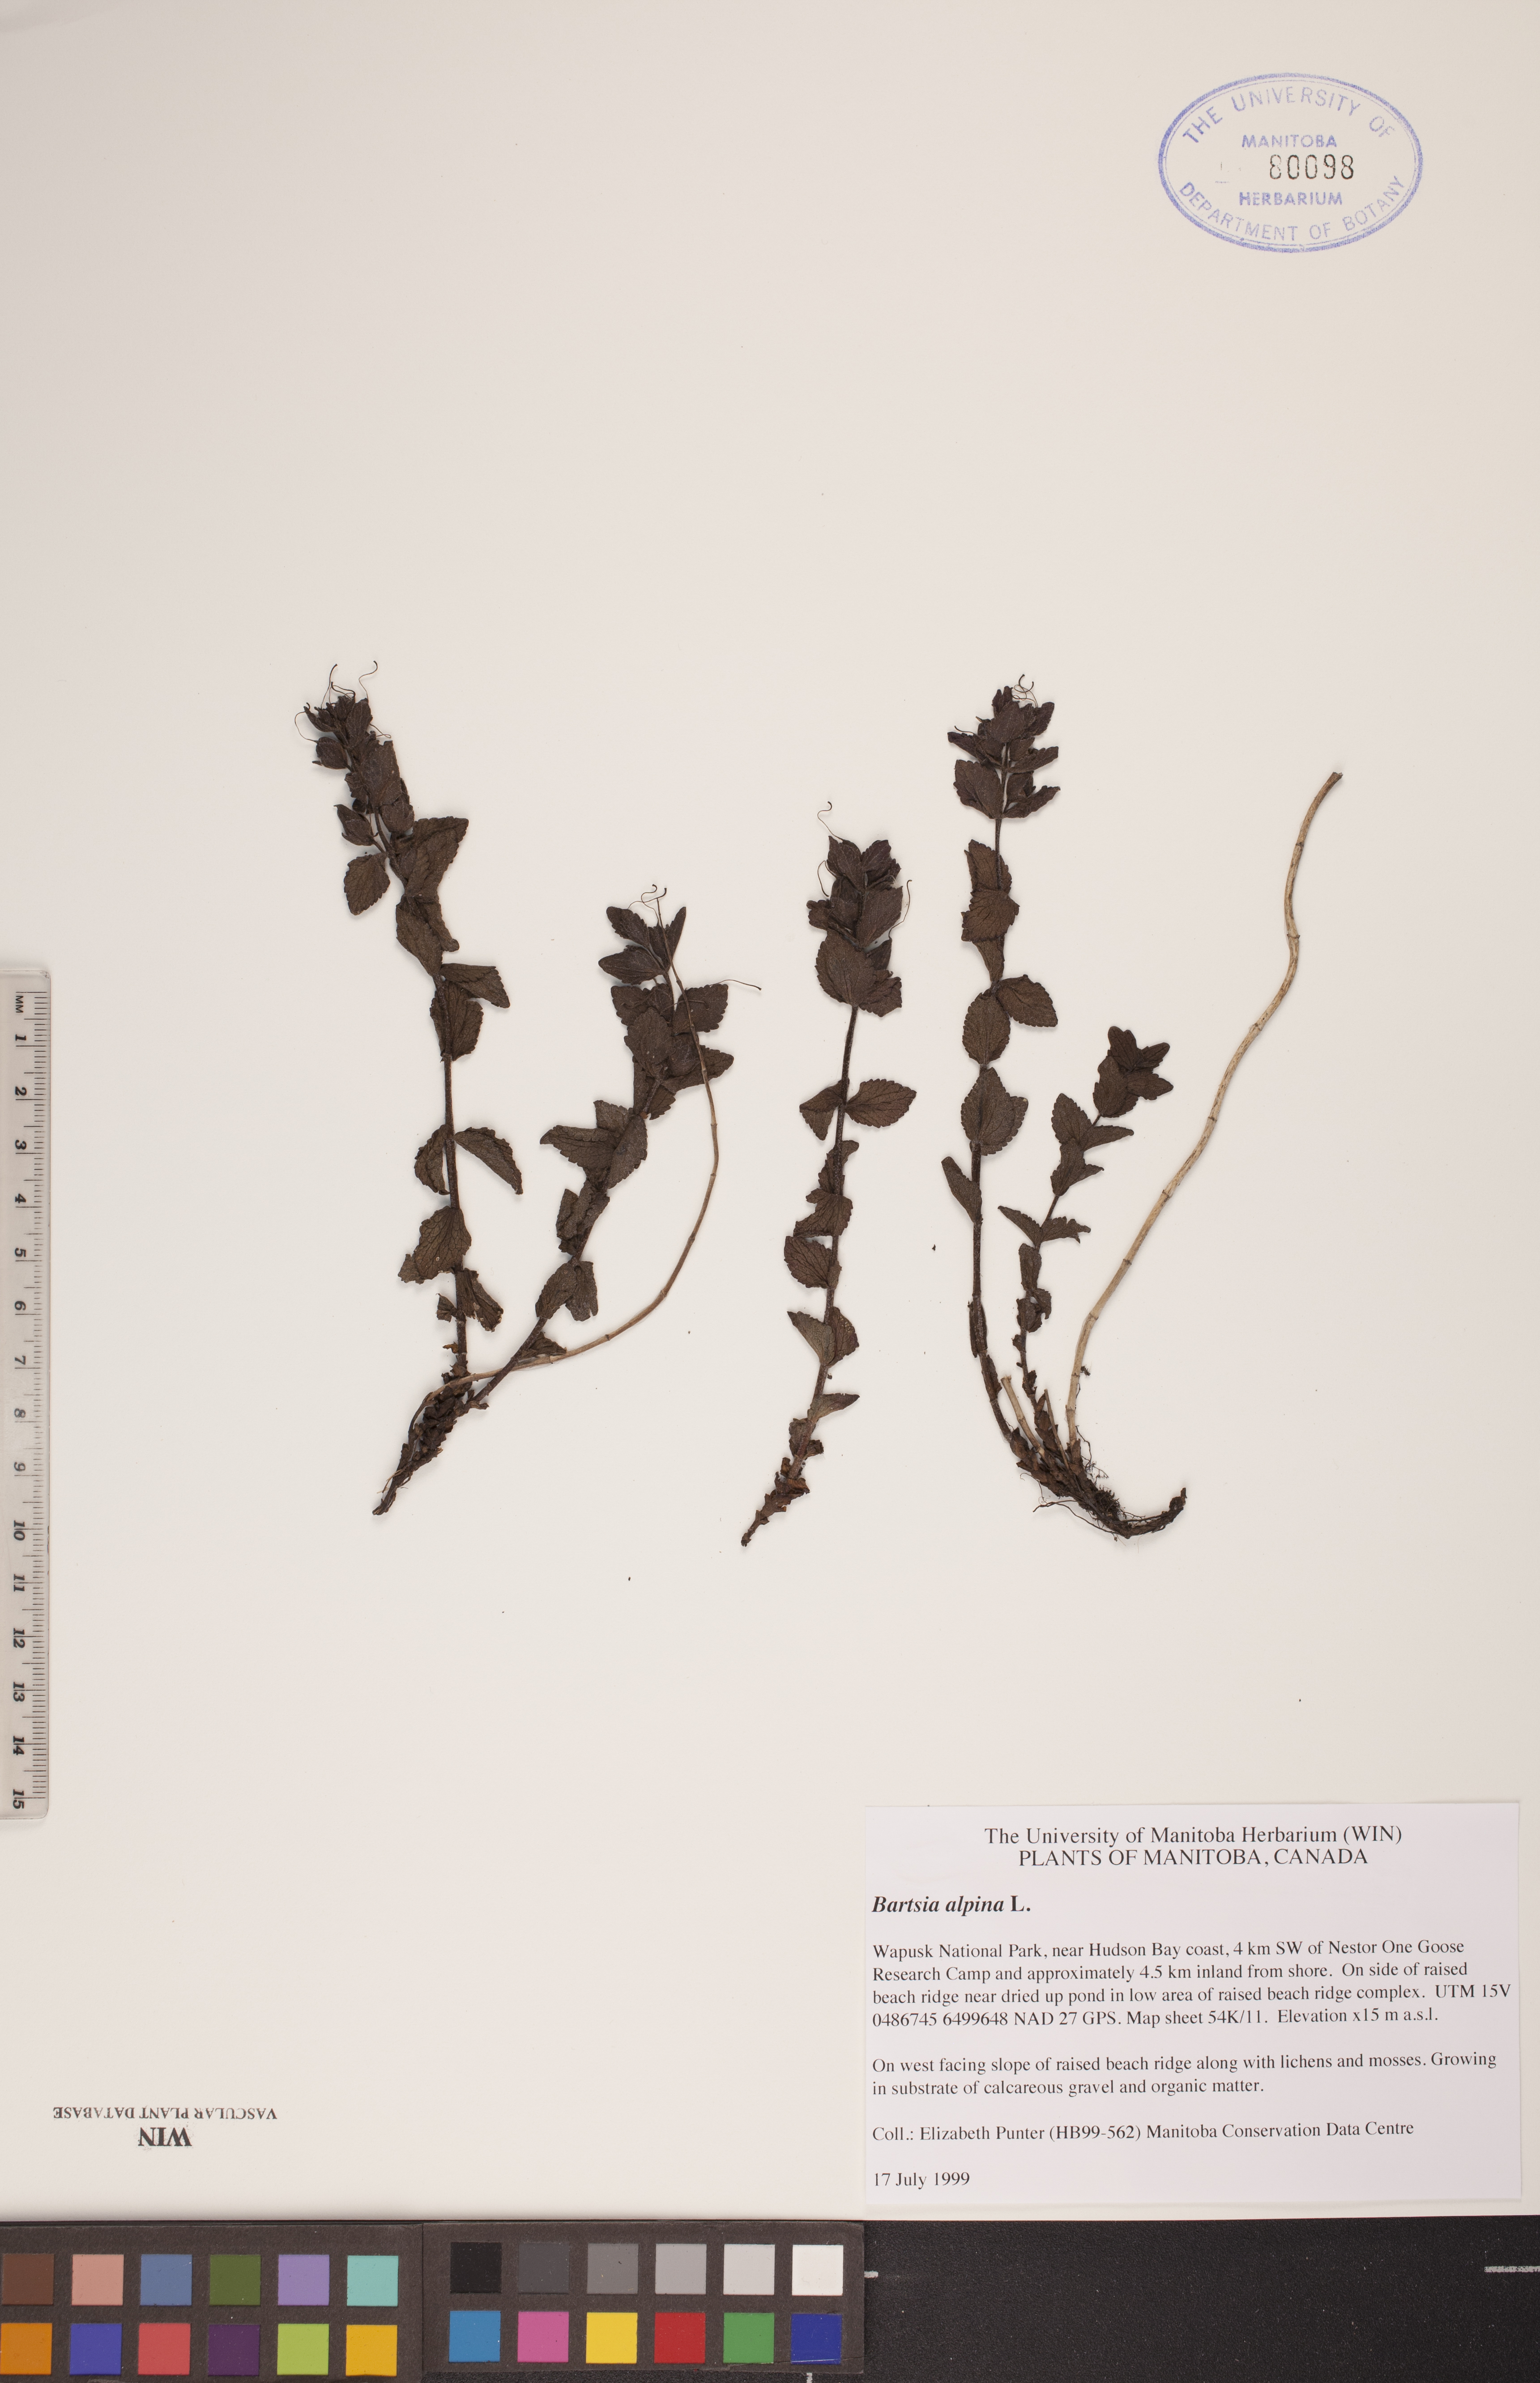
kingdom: Plantae
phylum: Tracheophyta
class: Magnoliopsida
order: Lamiales
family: Orobanchaceae
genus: Bartsia
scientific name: Bartsia alpina
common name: Alpine bartsia
